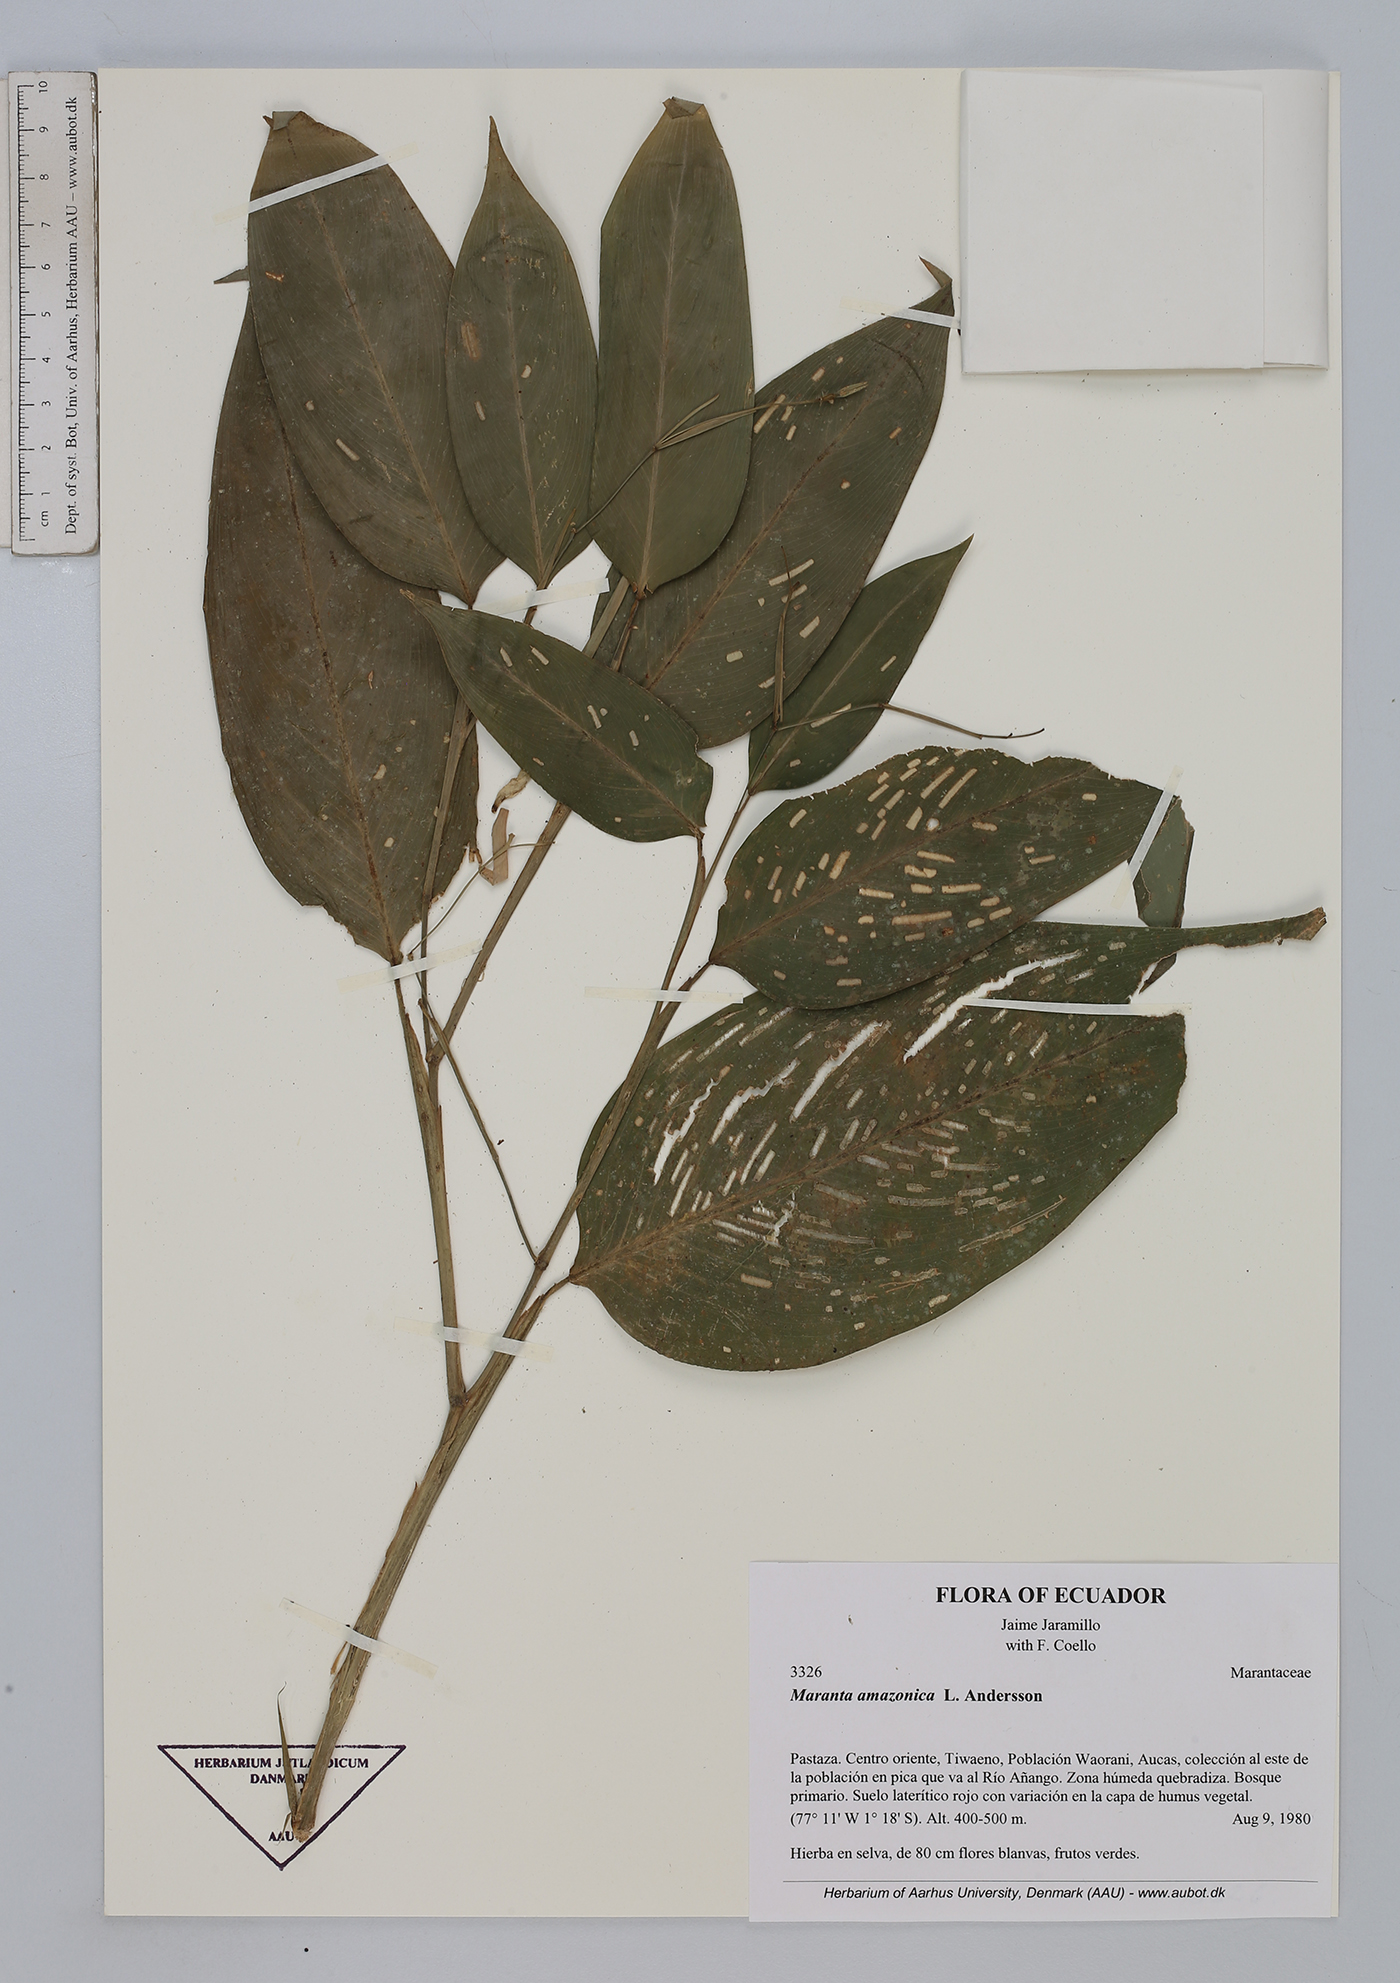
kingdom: Plantae
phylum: Tracheophyta
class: Liliopsida
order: Zingiberales
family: Marantaceae
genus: Maranta
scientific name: Maranta amazonica
